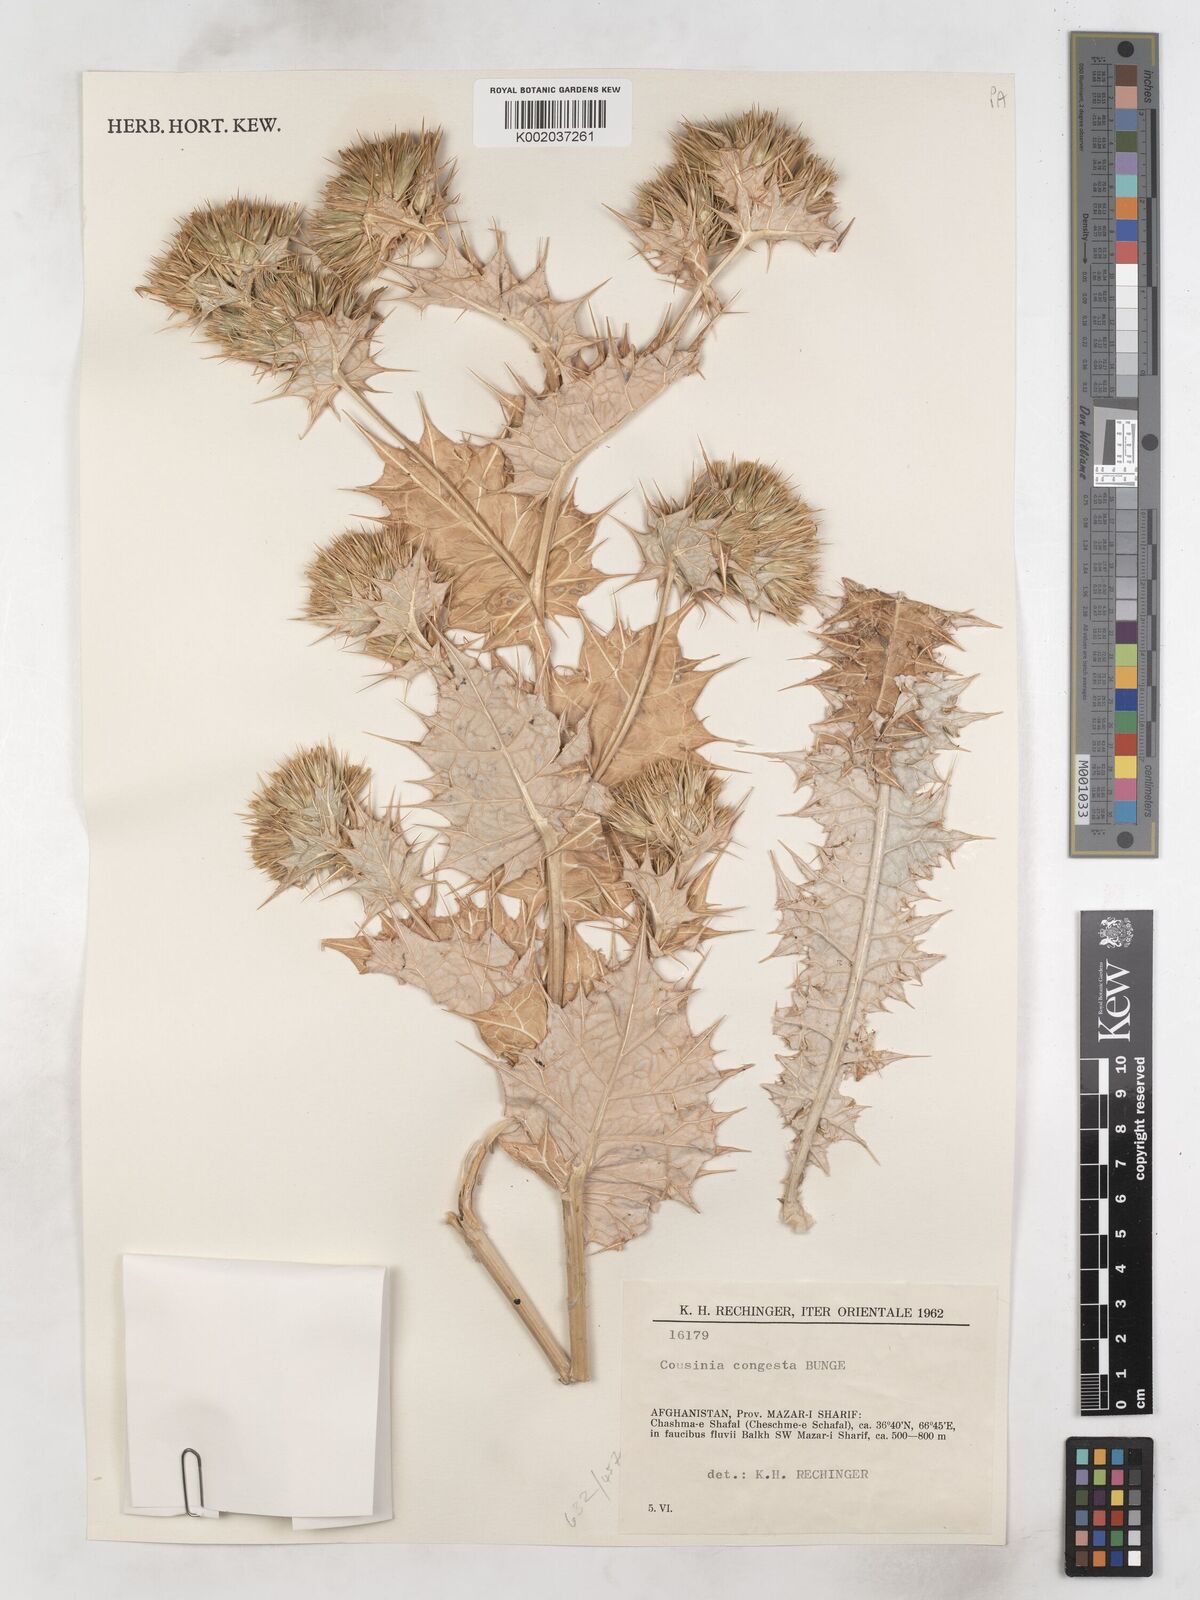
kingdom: Plantae
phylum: Tracheophyta
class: Magnoliopsida
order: Asterales
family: Asteraceae
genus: Cousinia
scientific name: Cousinia congesta
